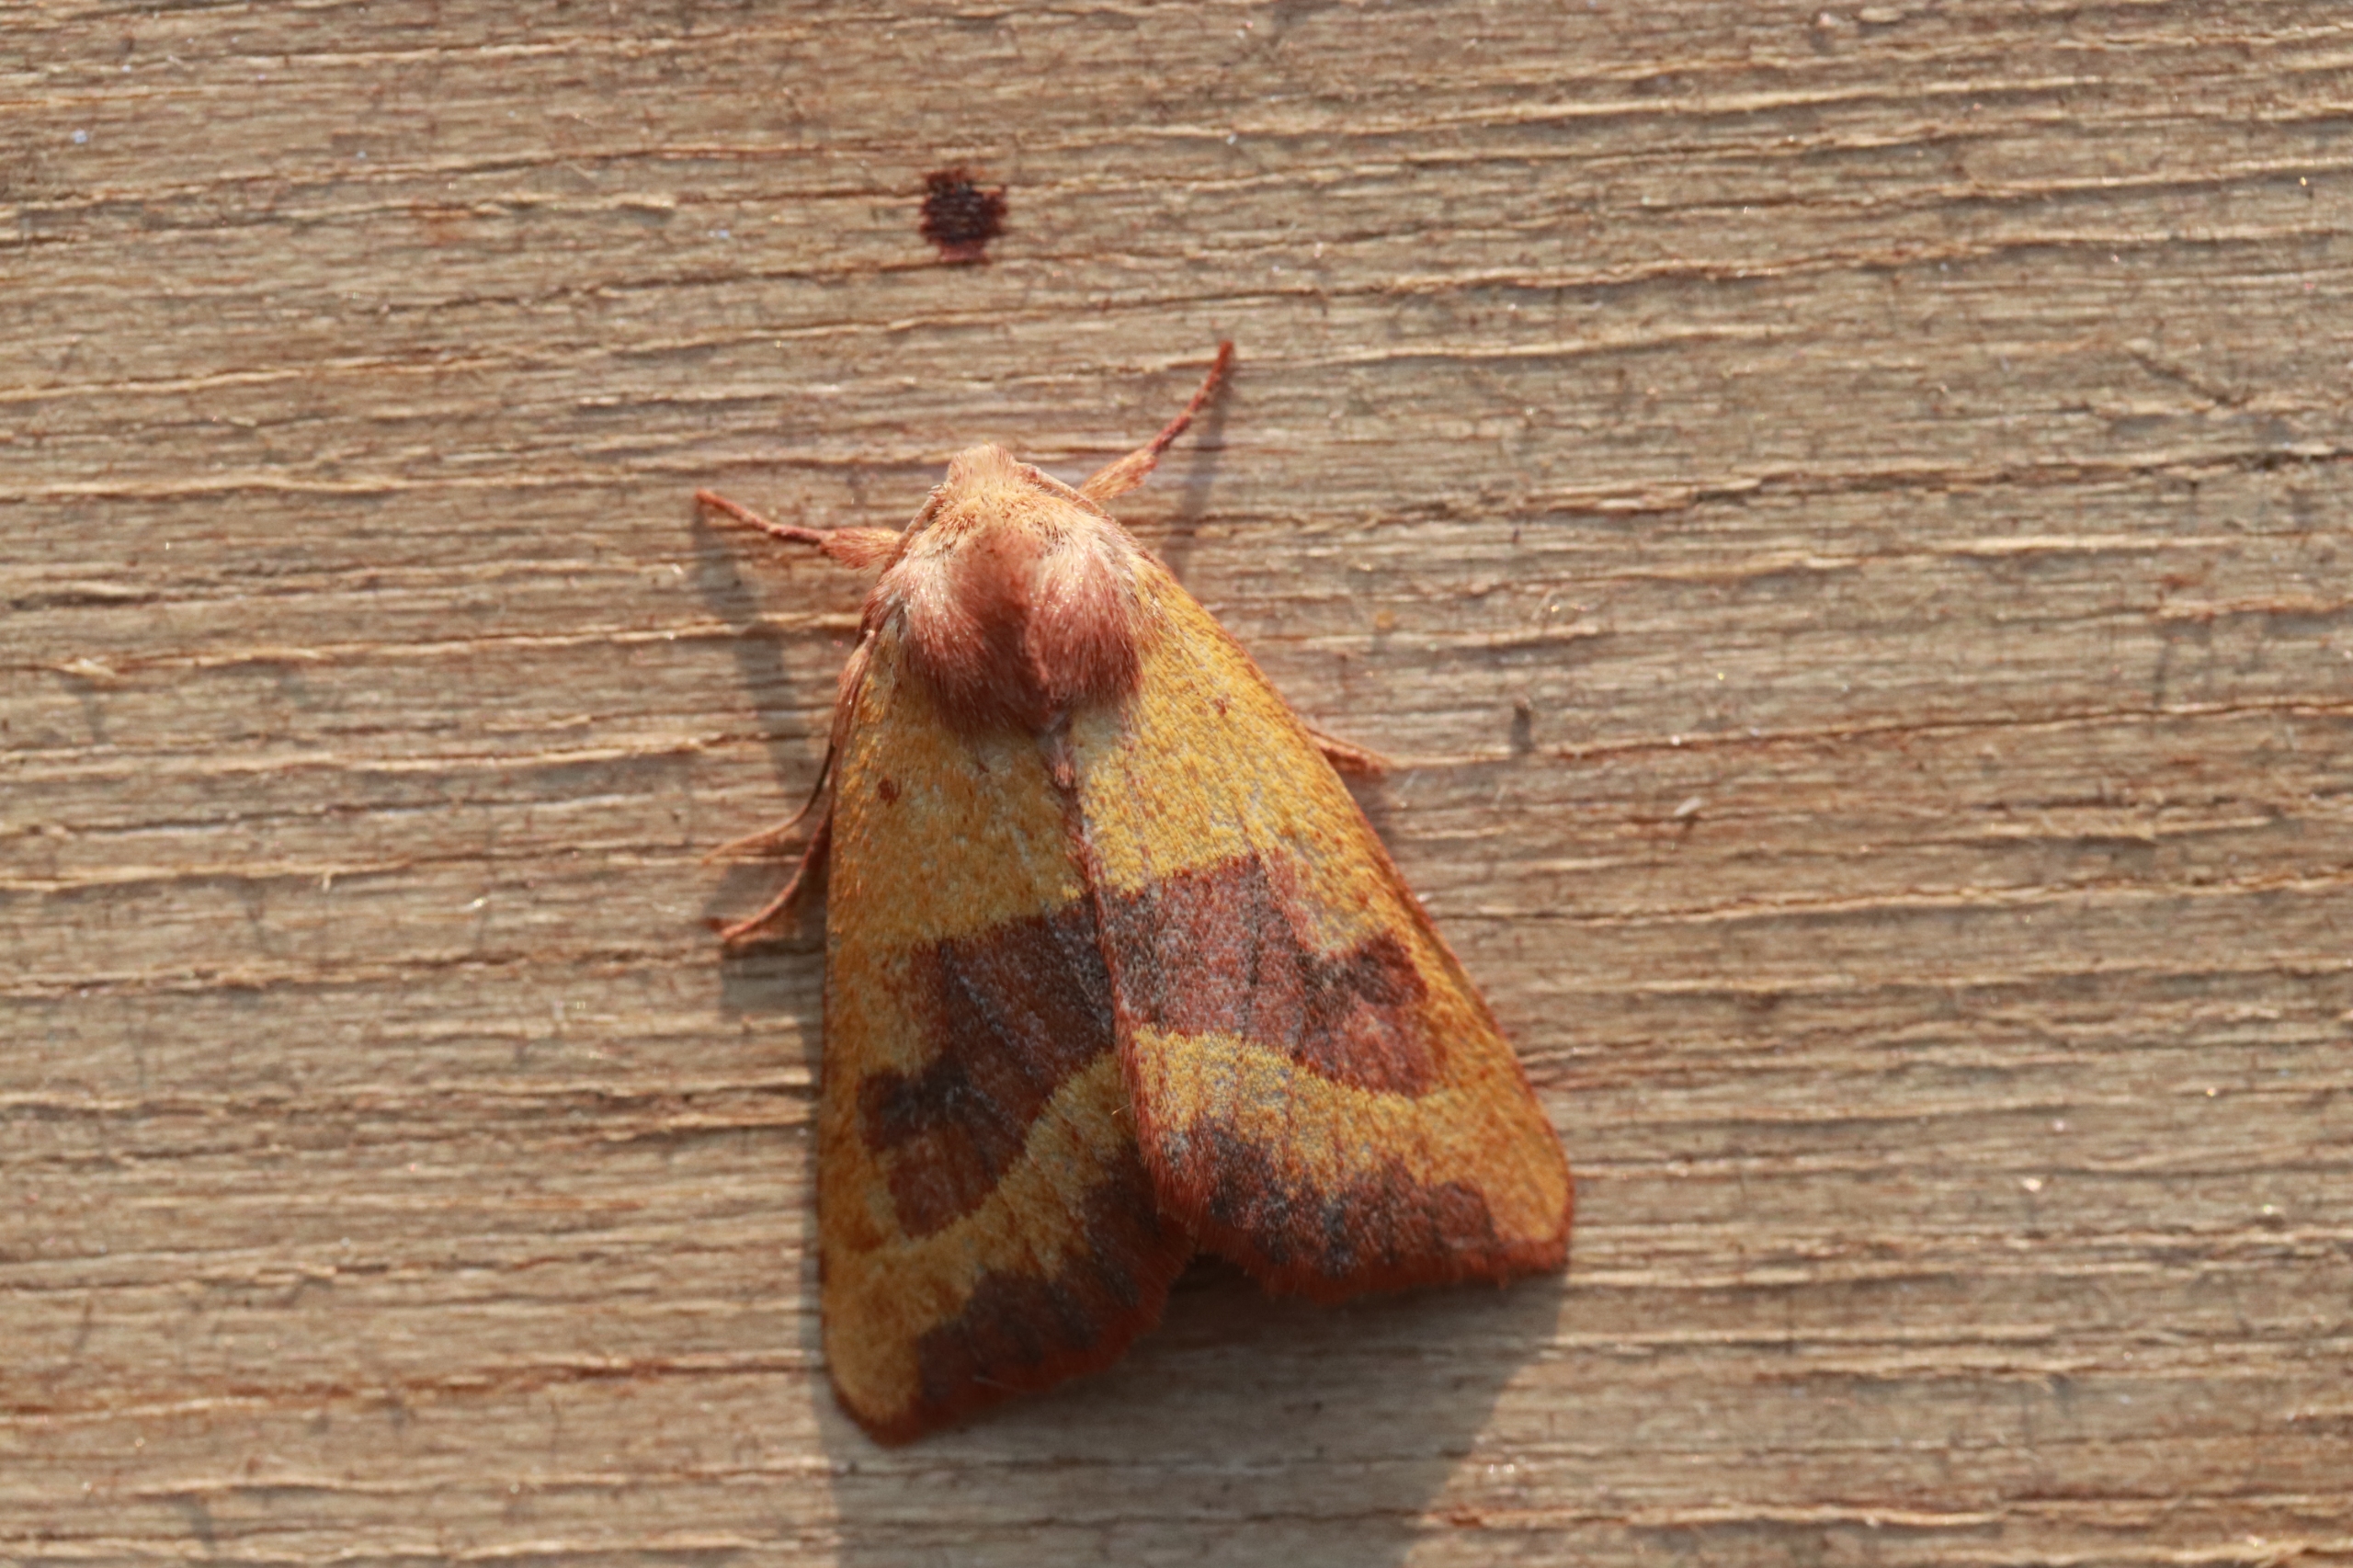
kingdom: Animalia
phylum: Arthropoda
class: Insecta
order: Lepidoptera
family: Noctuidae
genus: Atethmia
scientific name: Atethmia centrago
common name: Aske-septemberugle
